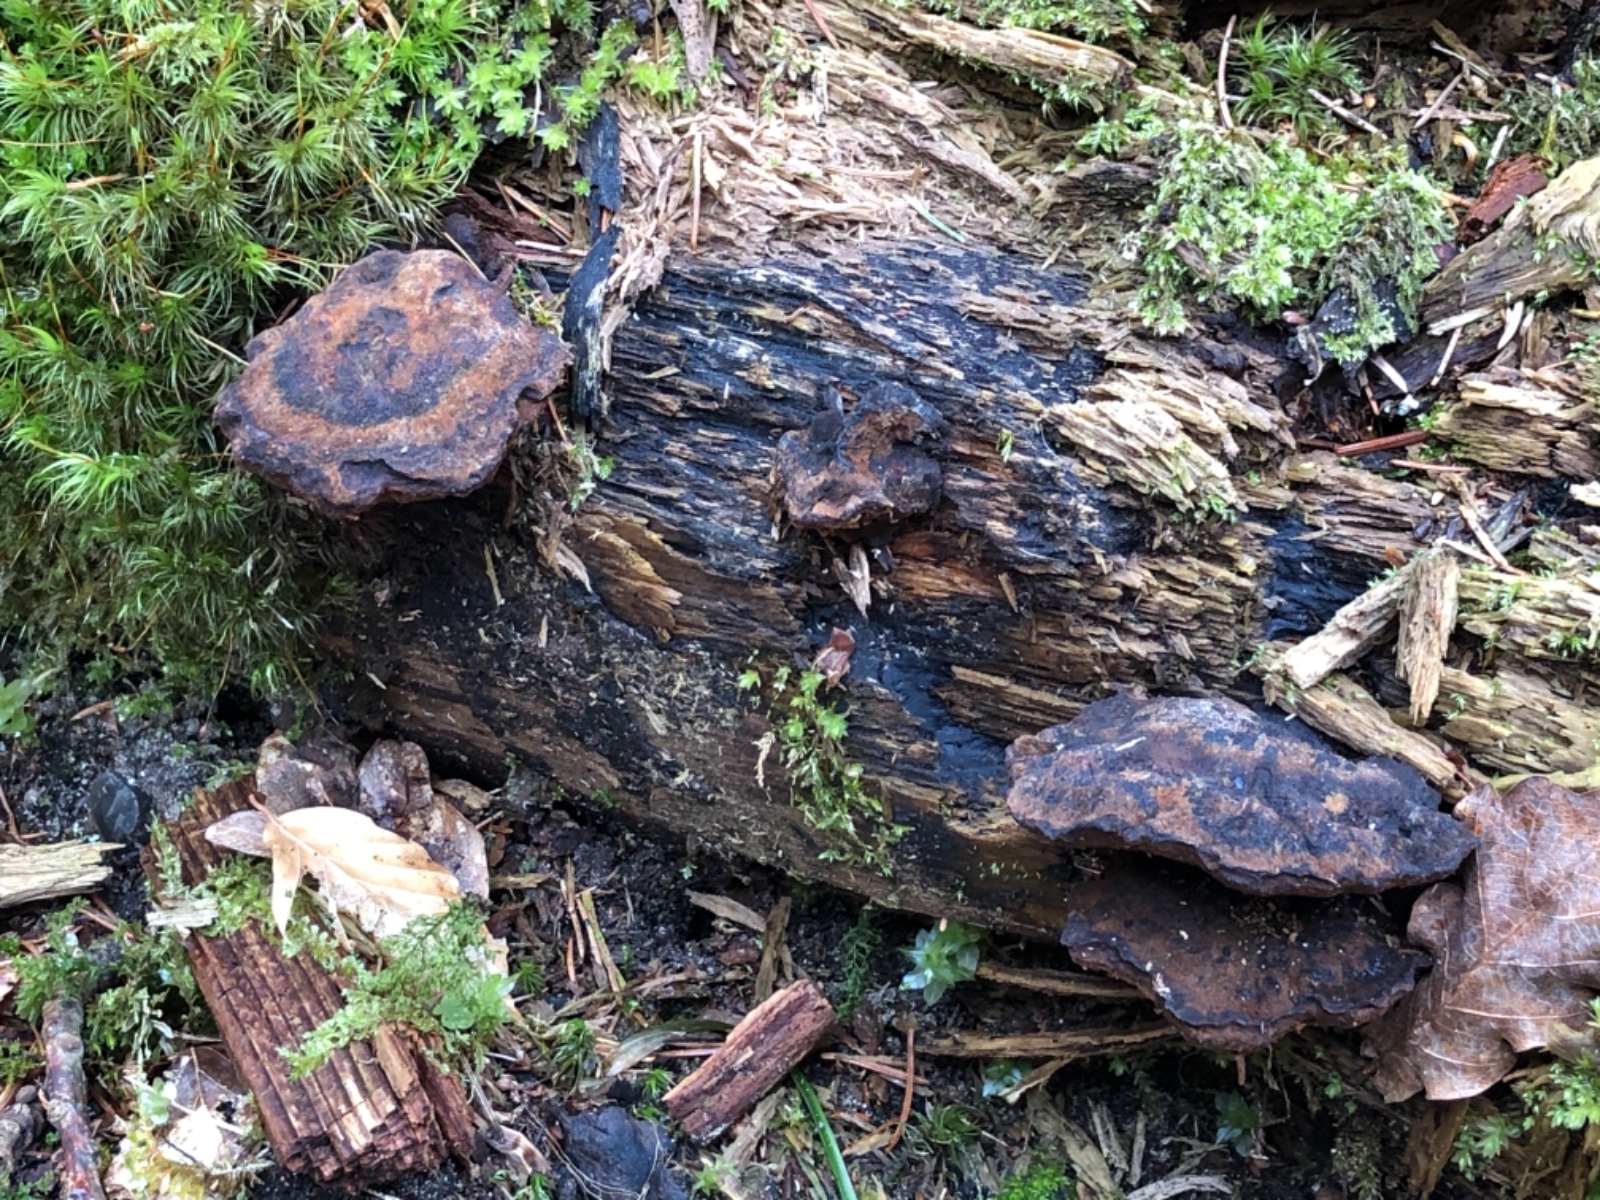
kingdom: Fungi
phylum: Basidiomycota
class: Agaricomycetes
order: Polyporales
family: Ischnodermataceae
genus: Ischnoderma
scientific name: Ischnoderma benzoinum
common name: gran-tjæreporesvamp
